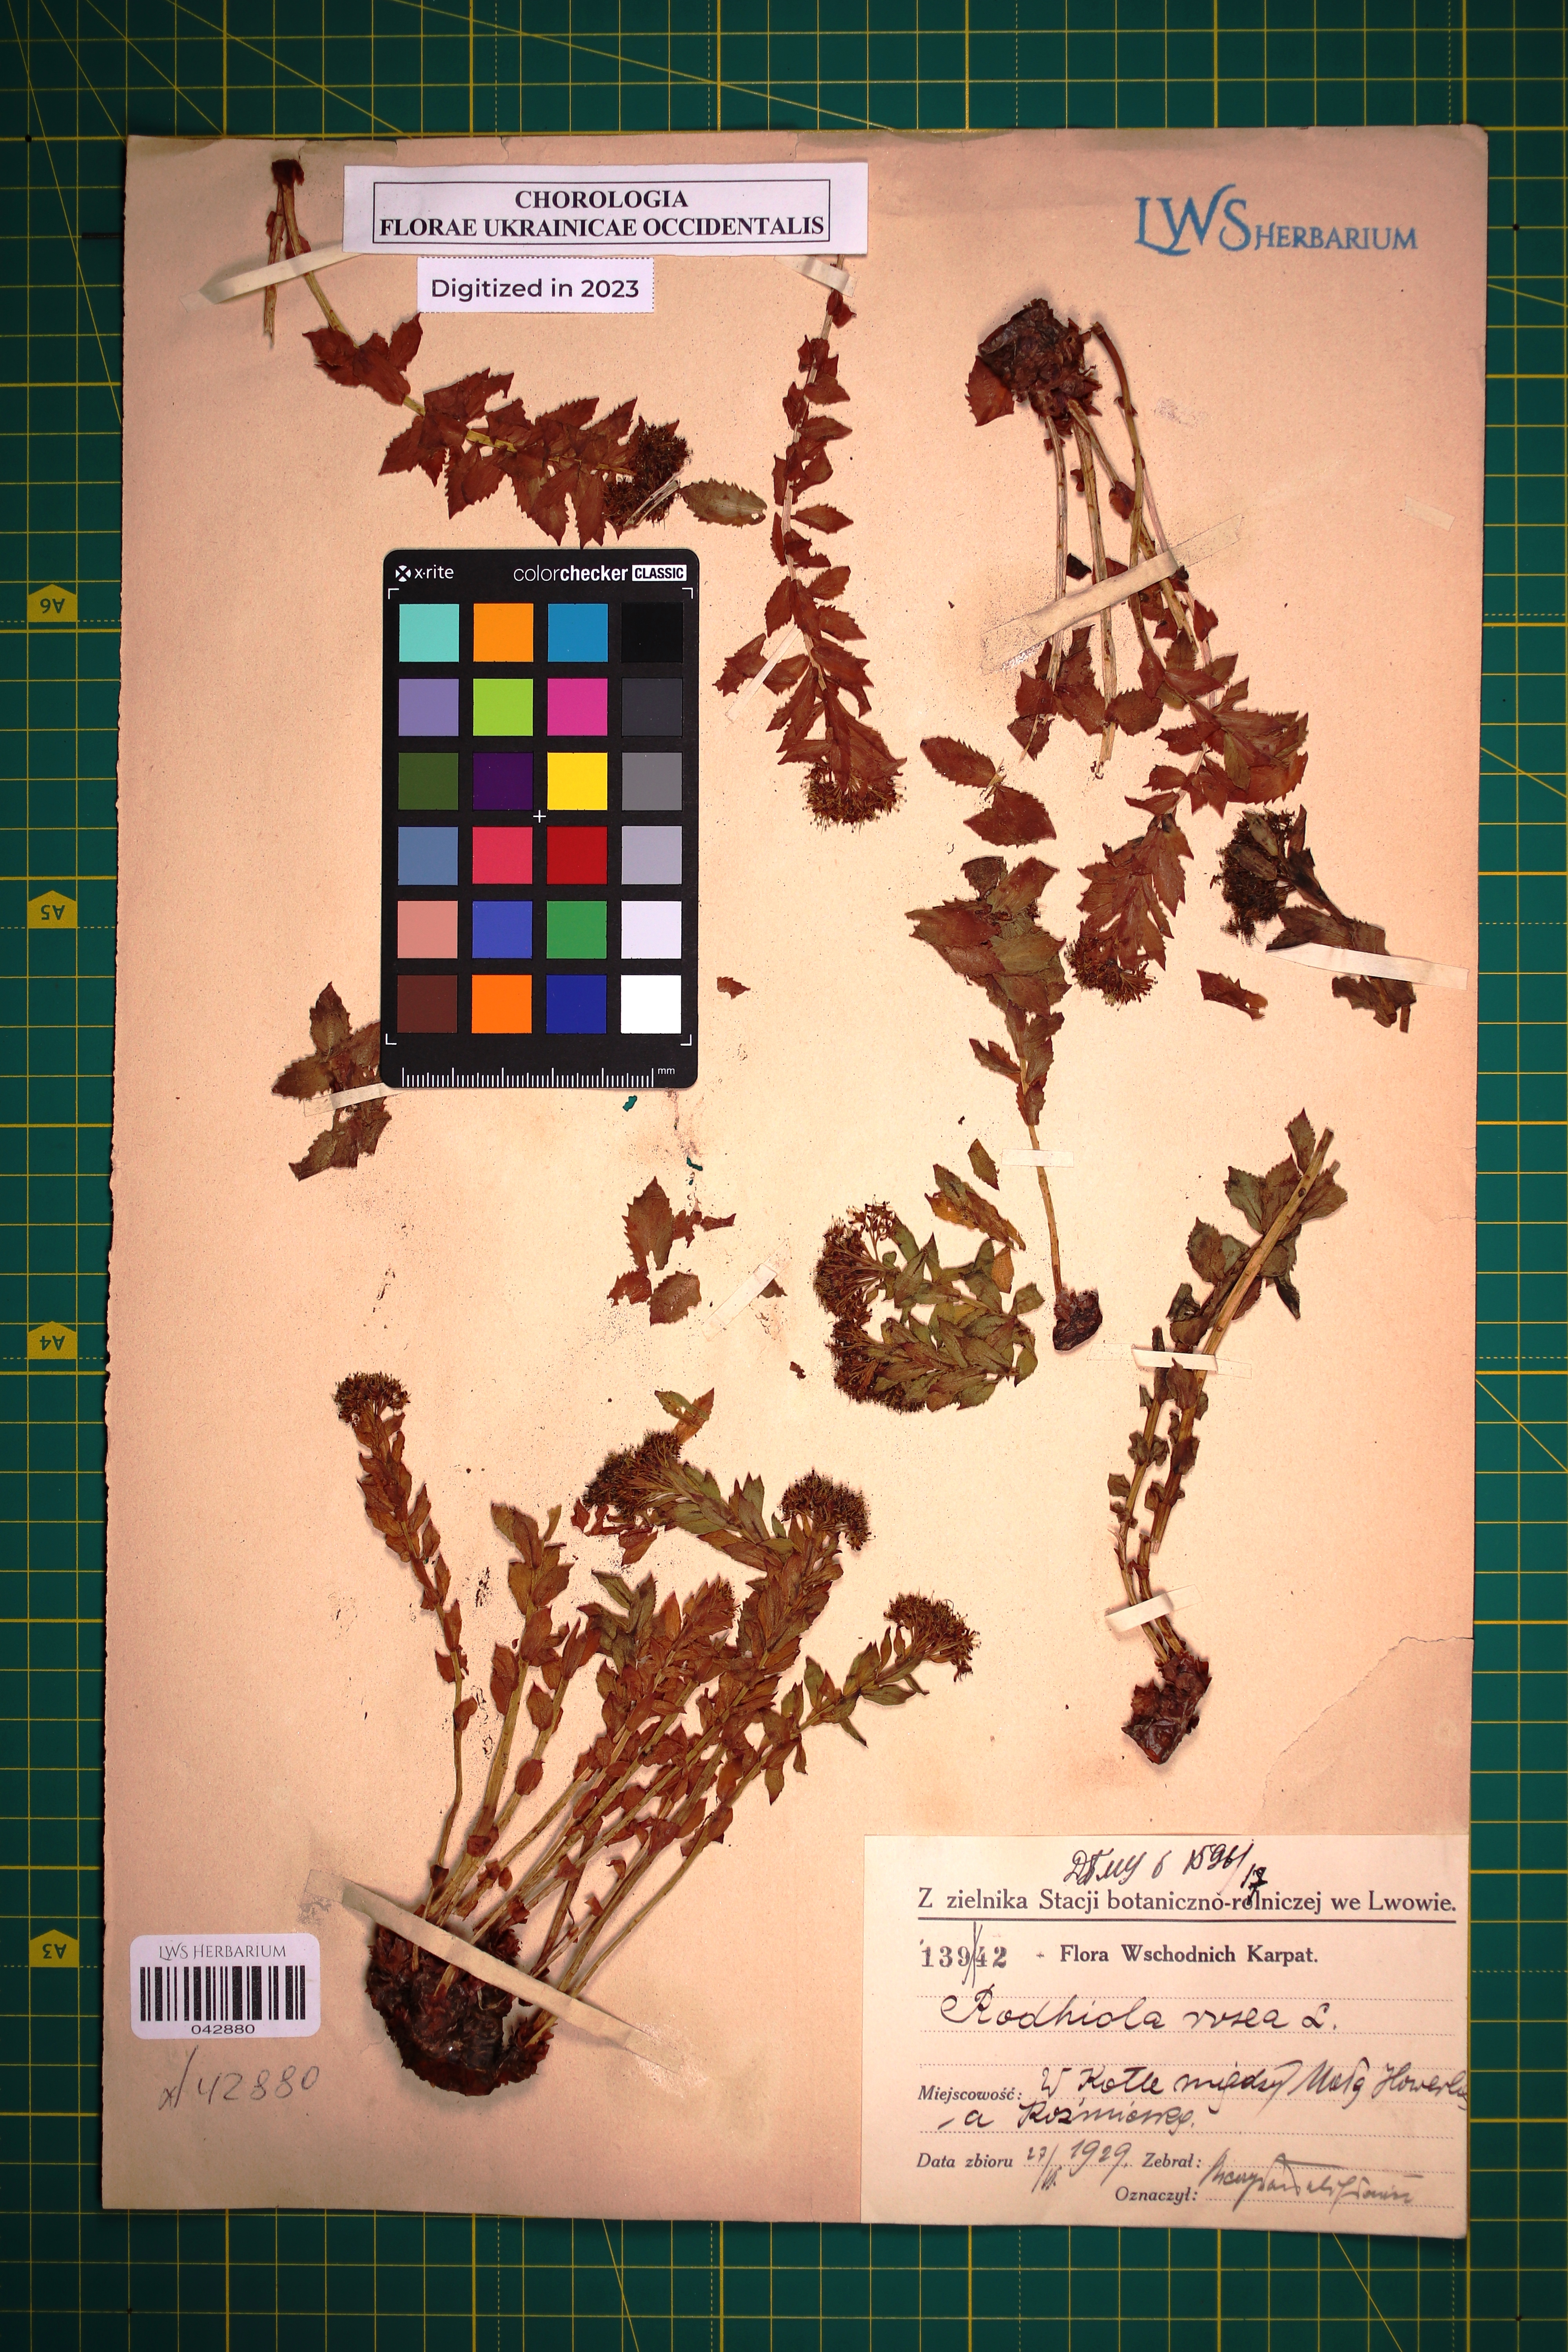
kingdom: Plantae
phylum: Tracheophyta
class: Magnoliopsida
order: Saxifragales
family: Crassulaceae
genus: Rhodiola
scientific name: Rhodiola rosea
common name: Roseroot
